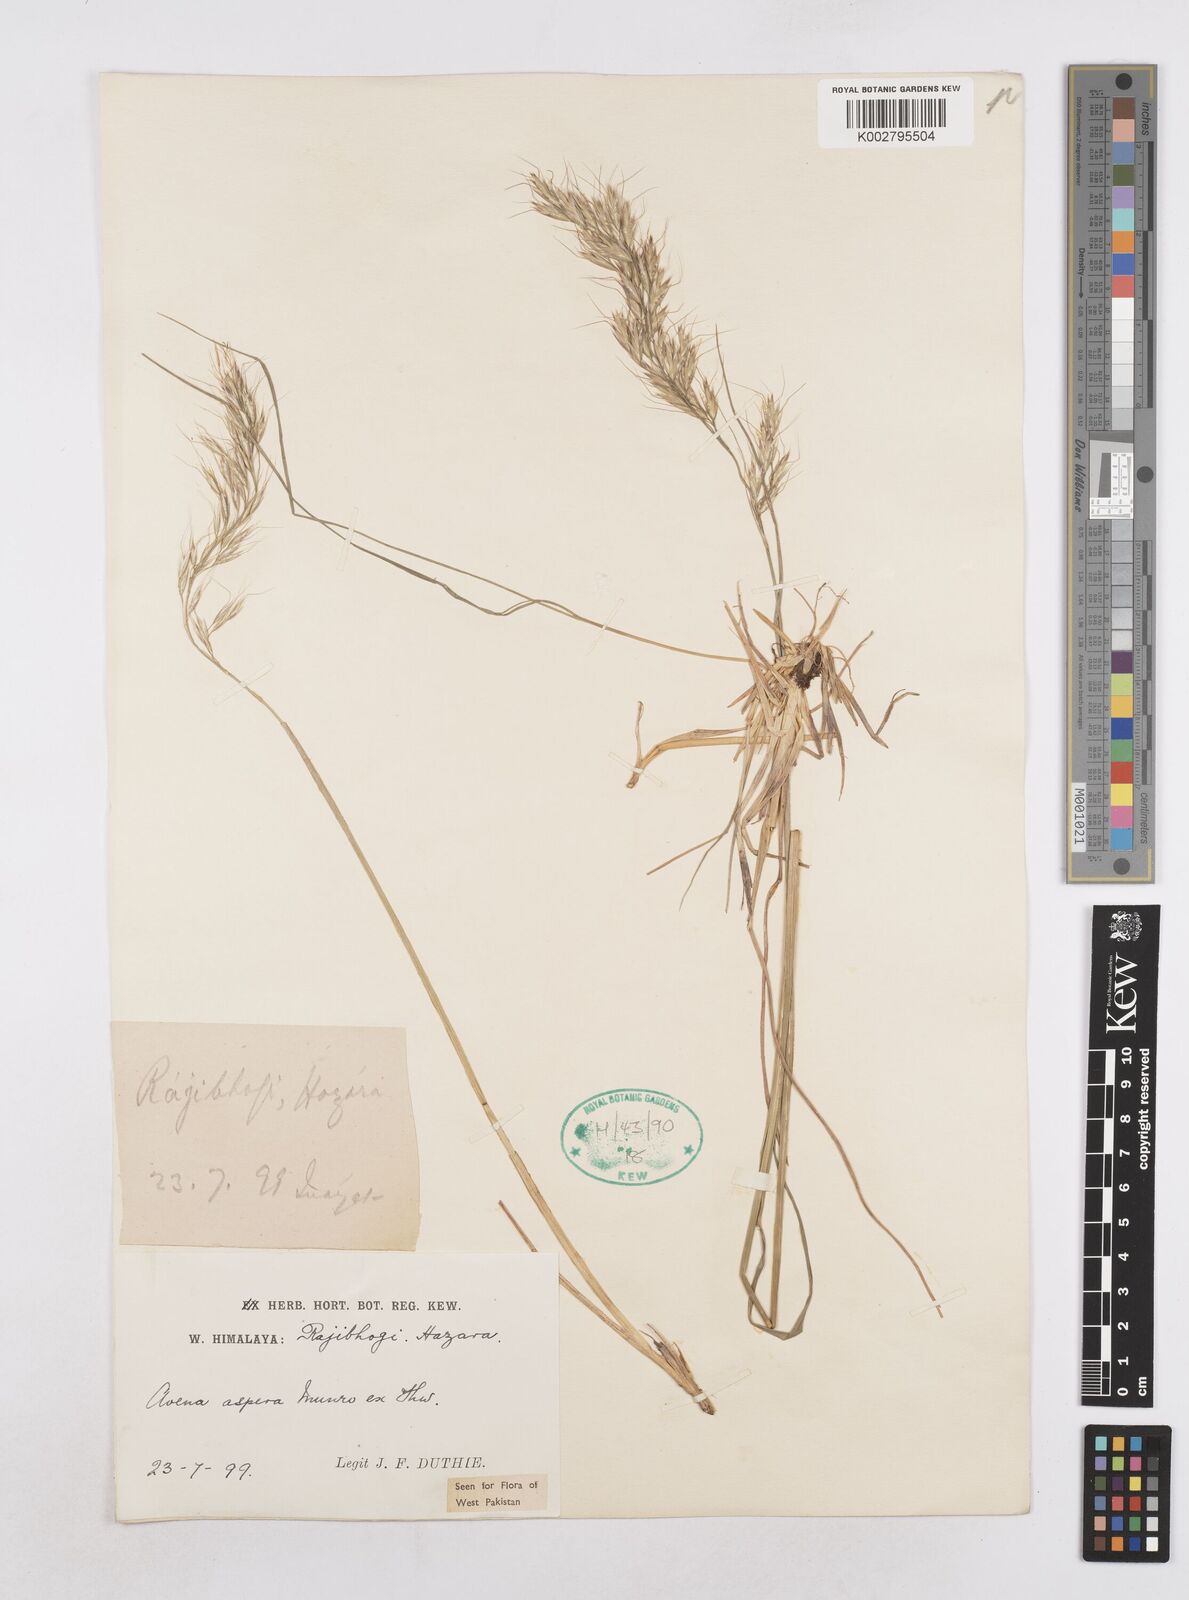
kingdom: Plantae
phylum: Tracheophyta
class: Liliopsida
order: Poales
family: Poaceae
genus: Trisetopsis
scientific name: Trisetopsis junghuhnii
